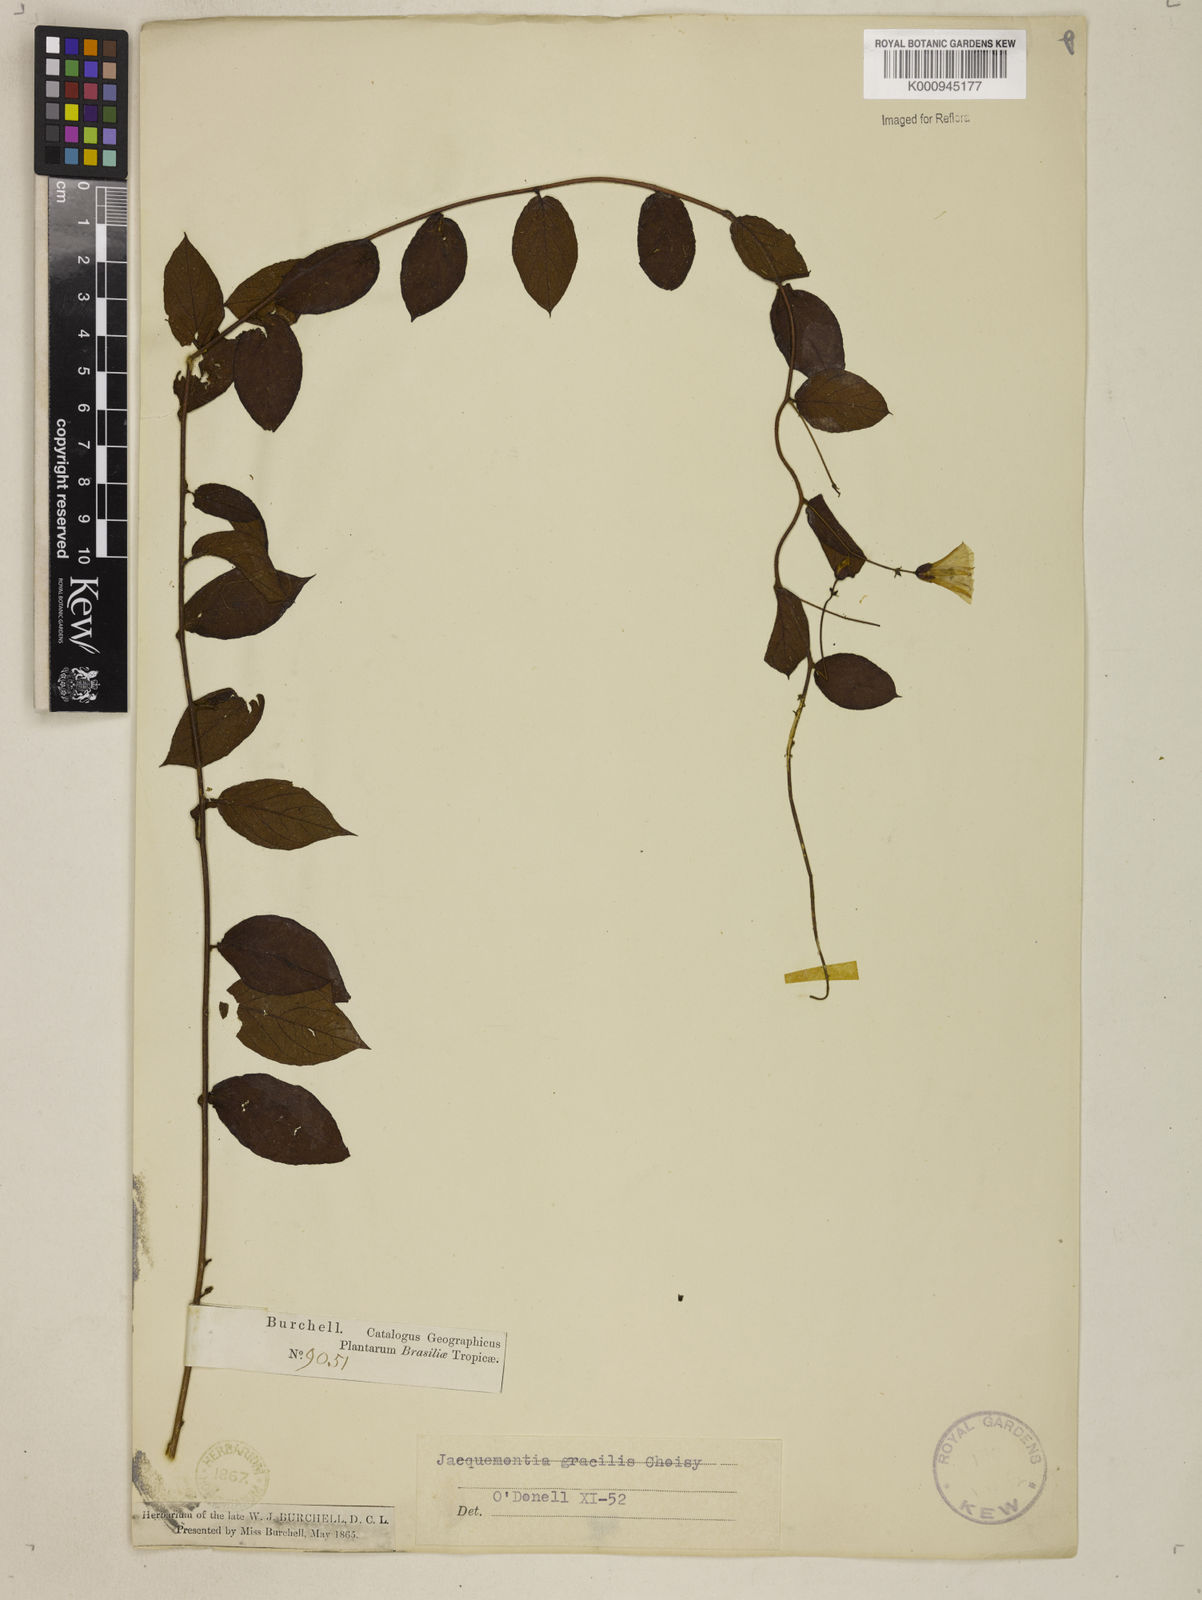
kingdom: Plantae
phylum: Tracheophyta
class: Magnoliopsida
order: Solanales
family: Convolvulaceae
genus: Jacquemontia
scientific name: Jacquemontia gracilis
